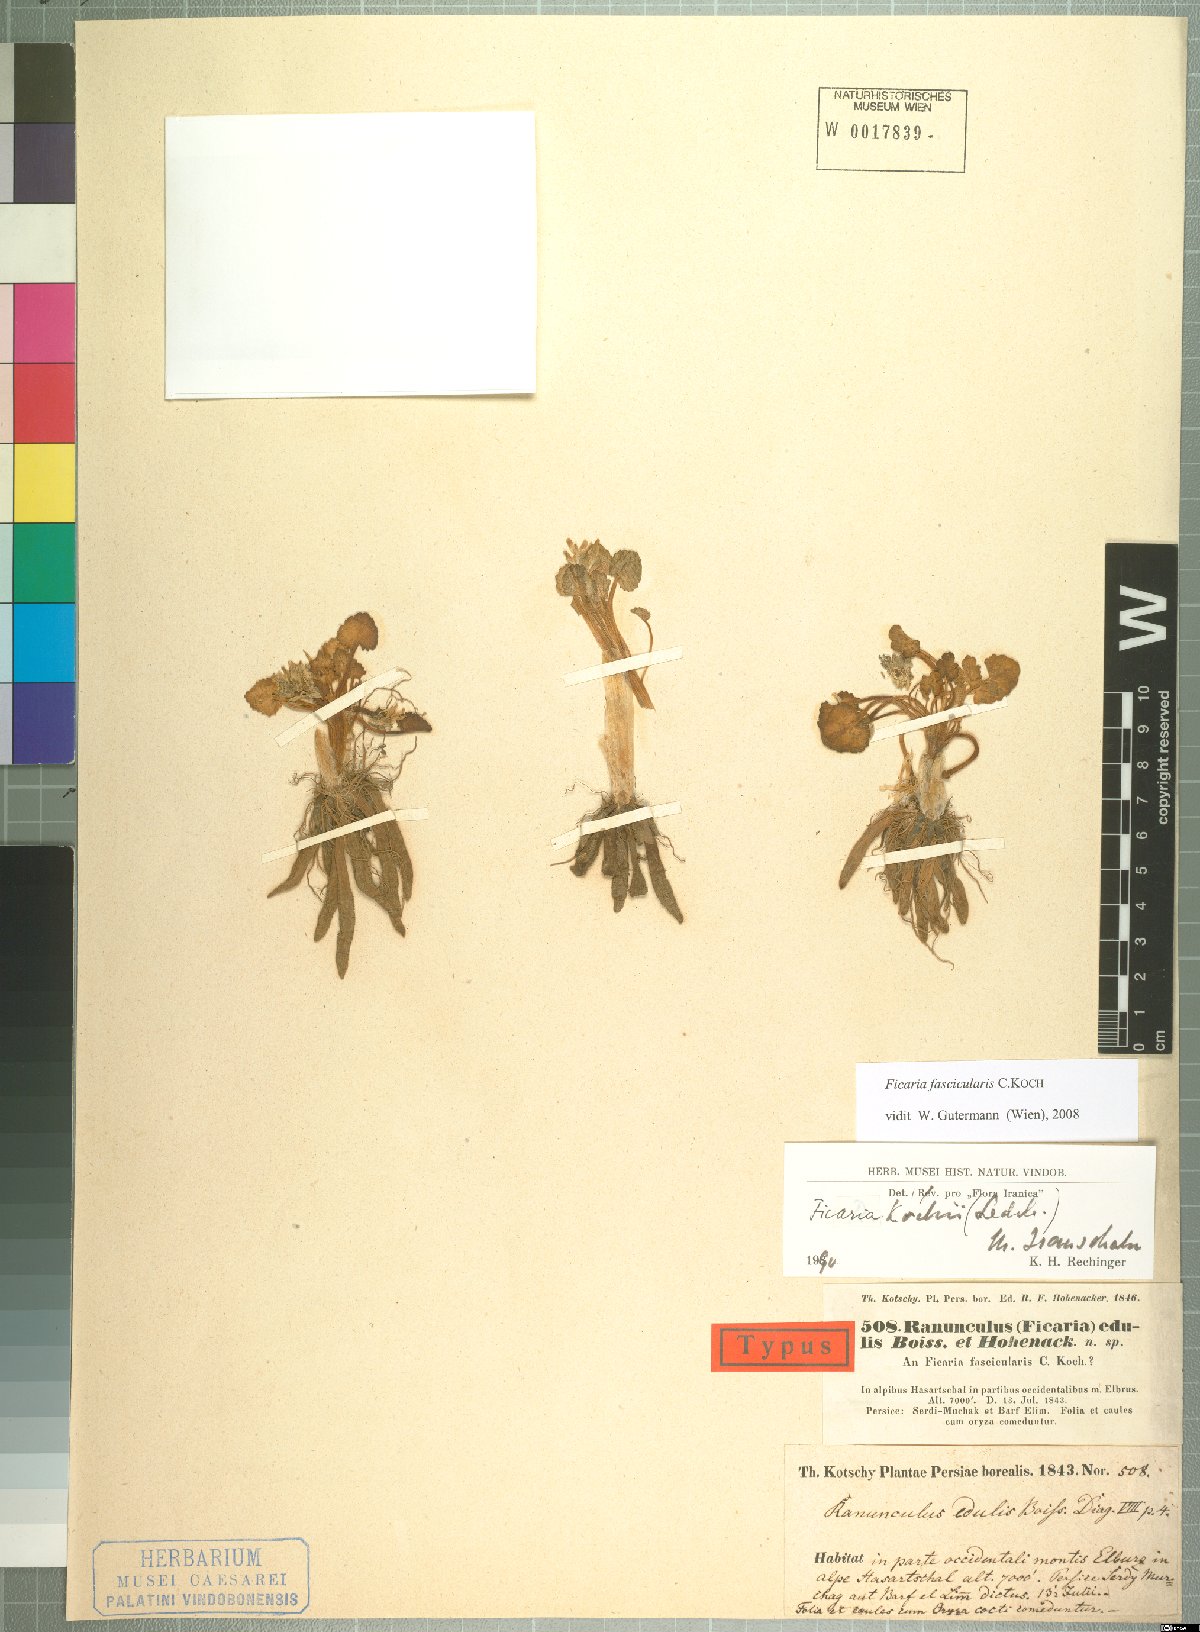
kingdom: Plantae
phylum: Tracheophyta
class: Magnoliopsida
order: Ranunculales
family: Ranunculaceae
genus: Ficaria
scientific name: Ficaria kochii
